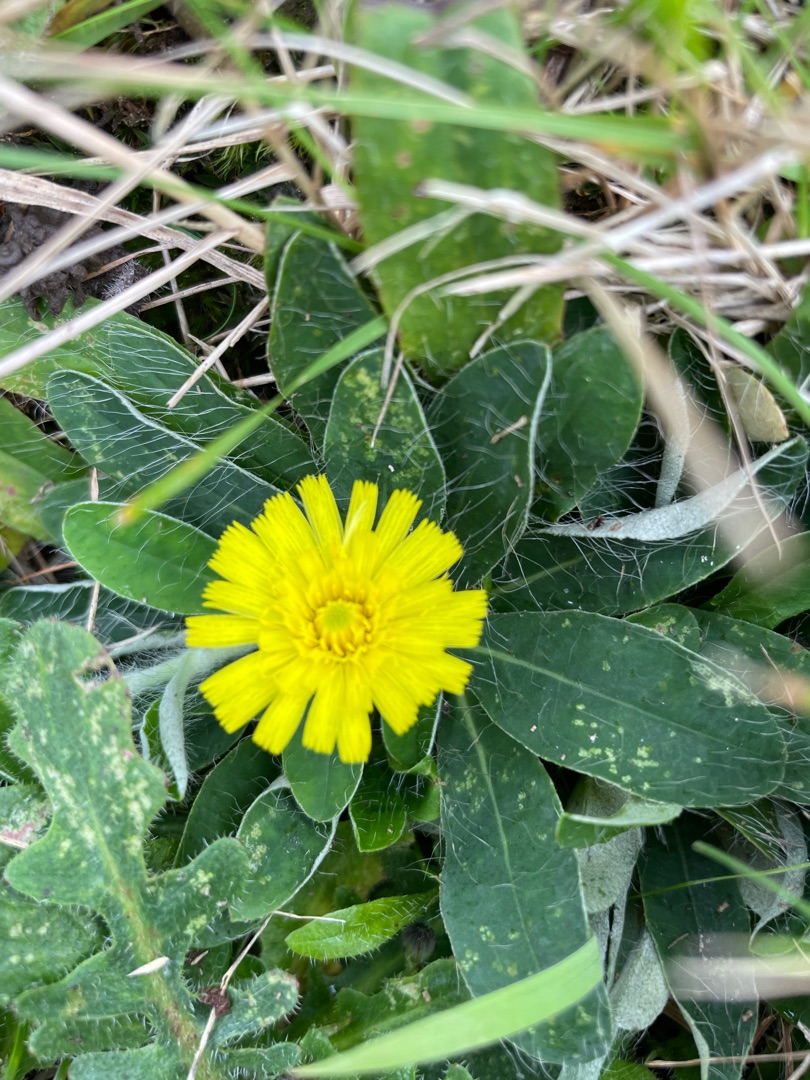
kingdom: Plantae
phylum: Tracheophyta
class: Magnoliopsida
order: Asterales
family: Asteraceae
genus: Pilosella
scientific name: Pilosella officinarum
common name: Håret høgeurt
